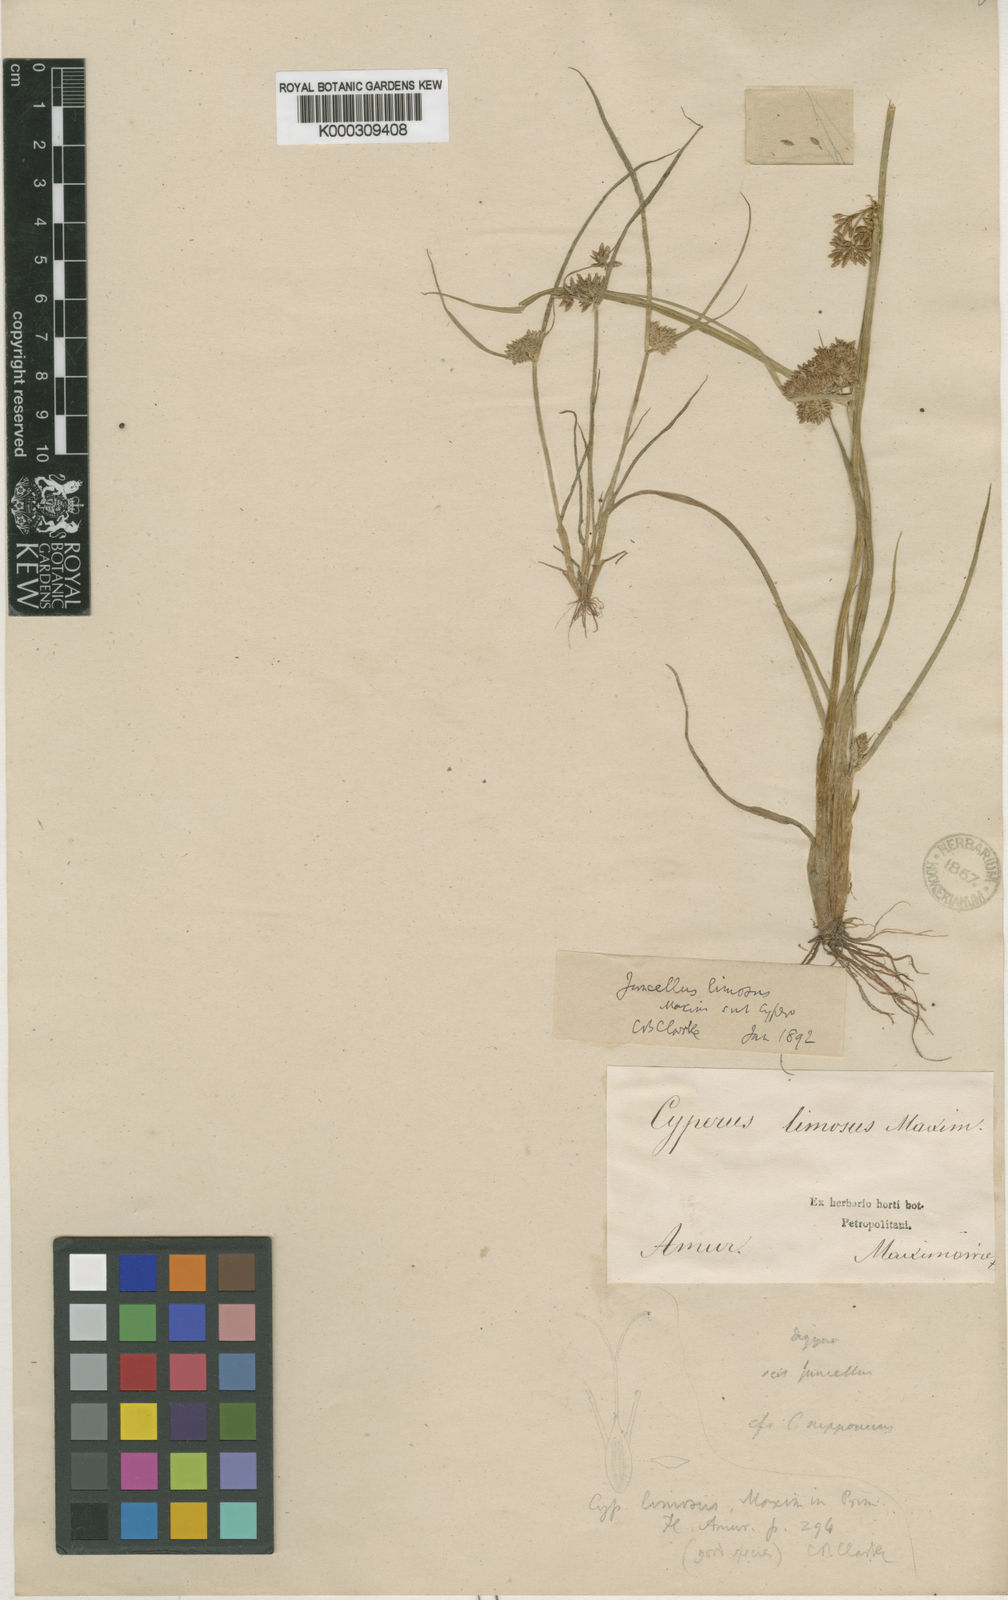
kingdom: Plantae
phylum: Tracheophyta
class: Liliopsida
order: Poales
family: Cyperaceae
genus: Cyperus
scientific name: Cyperus limosus
